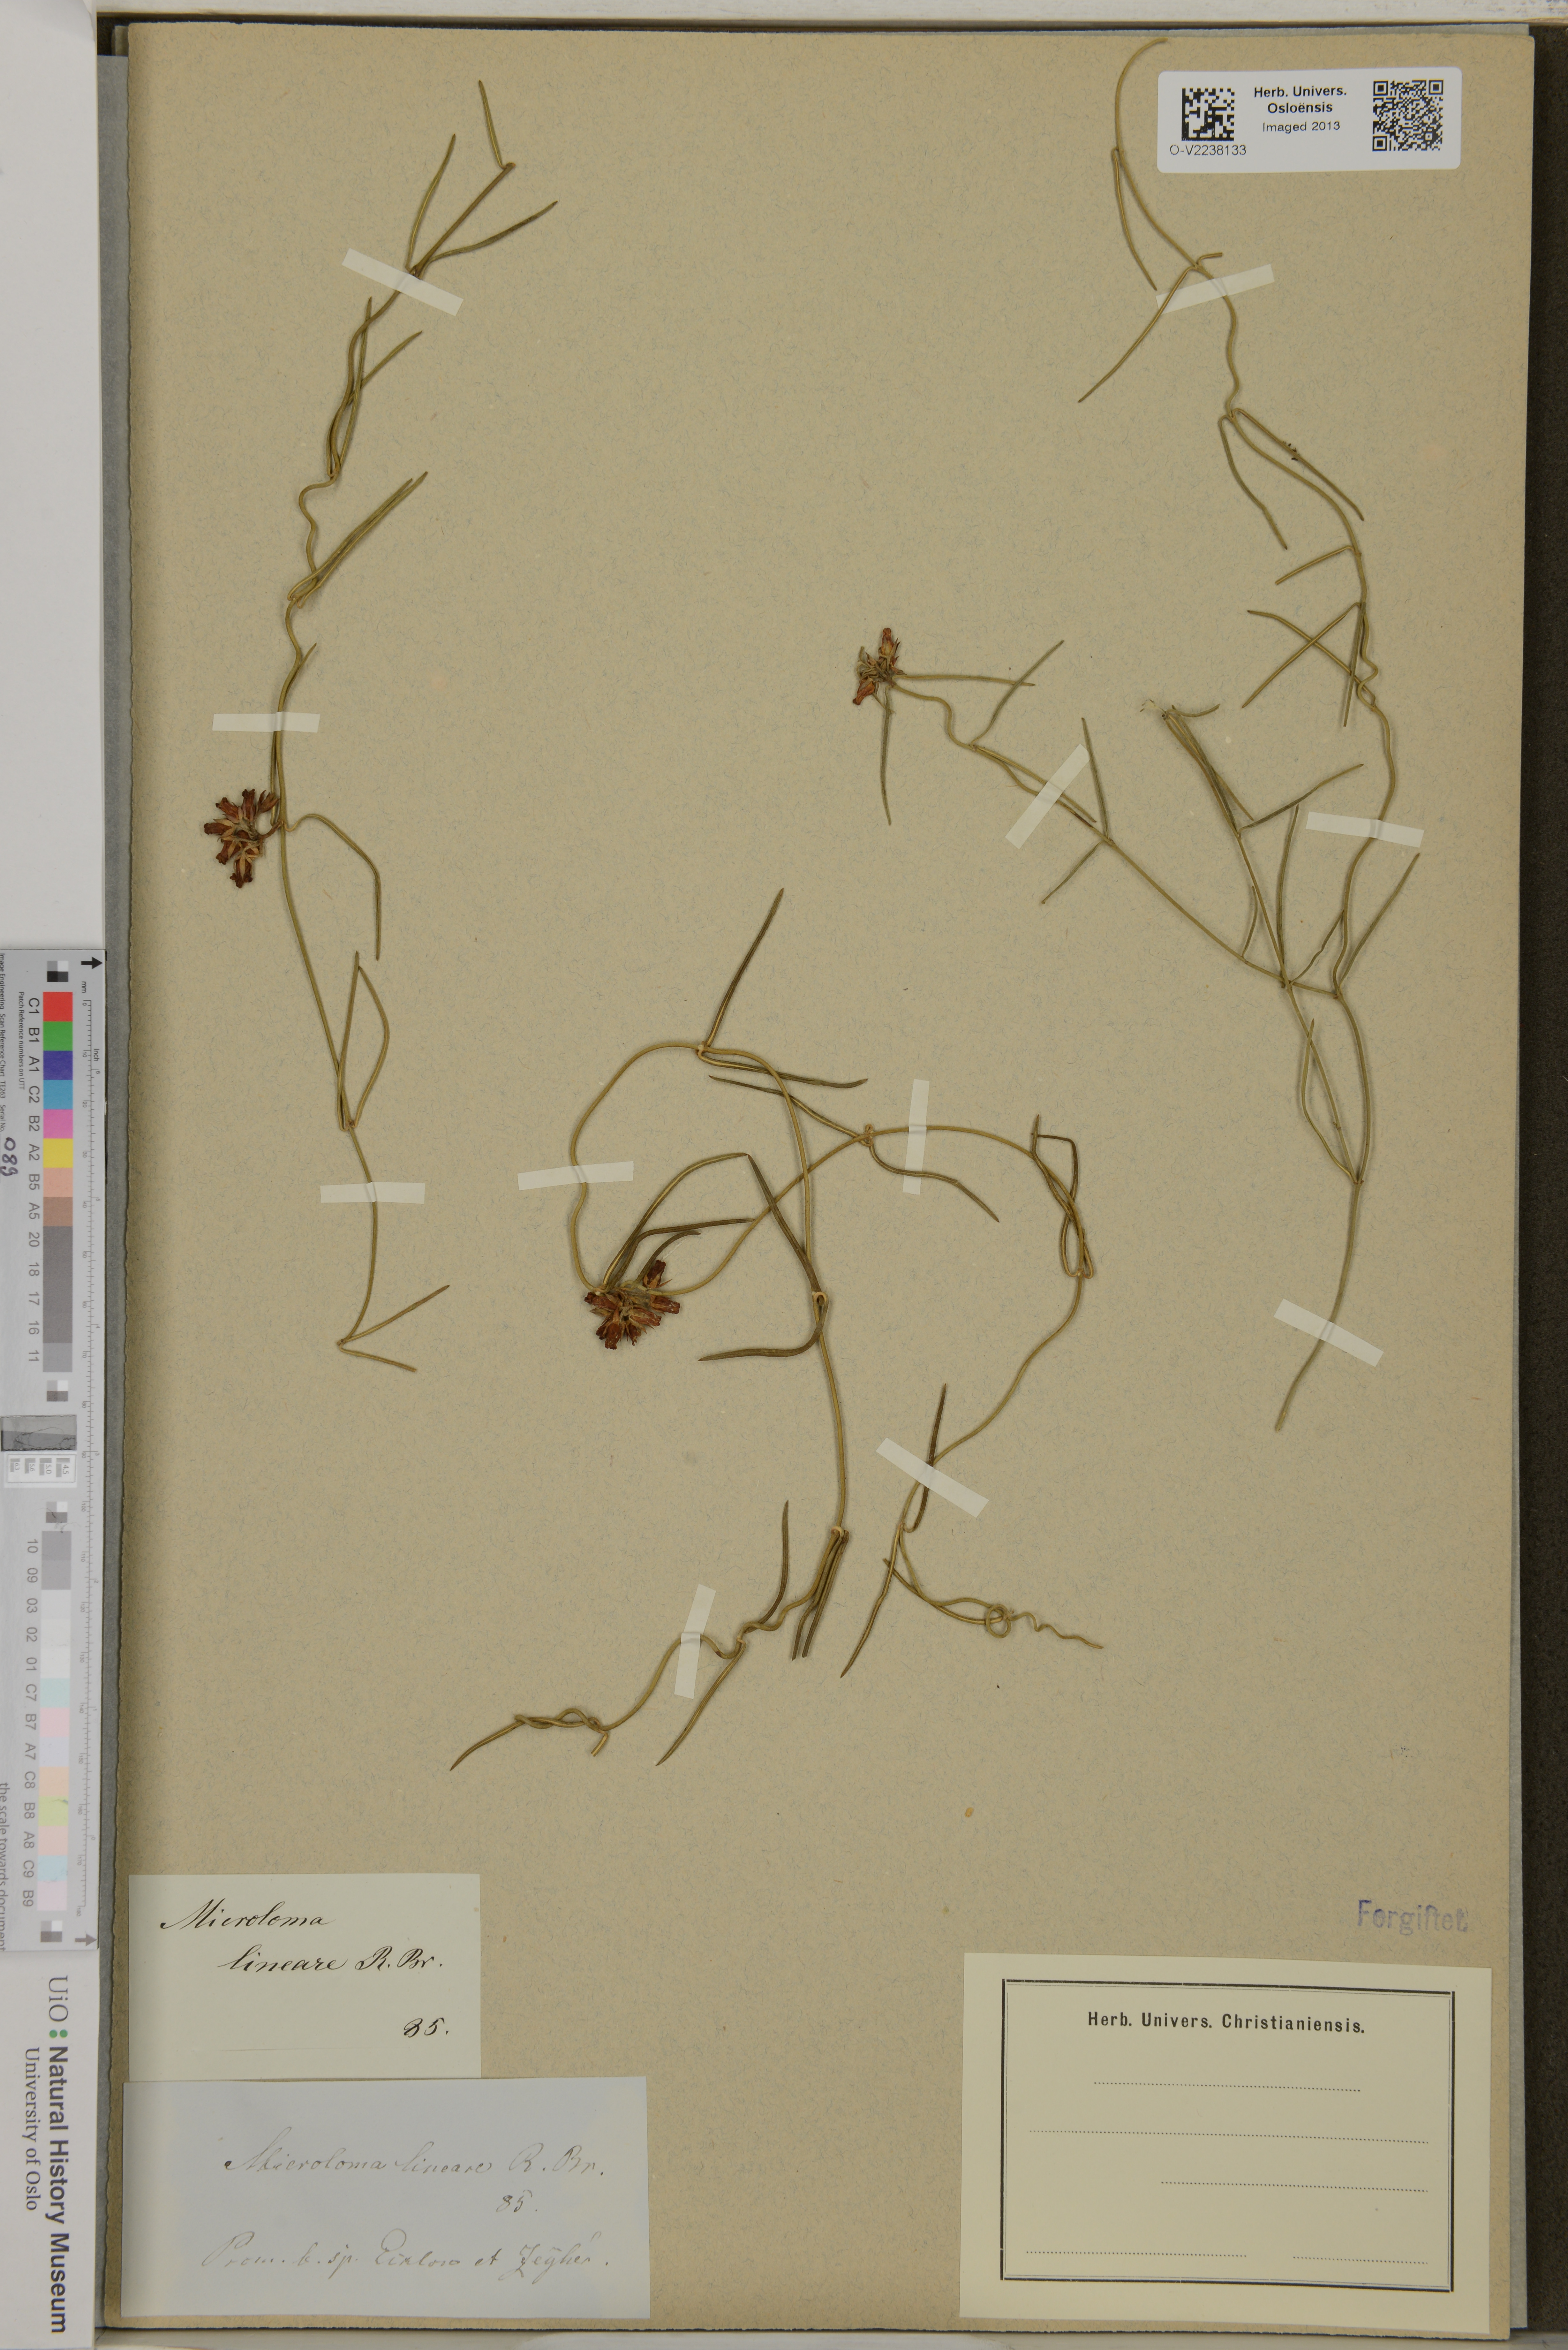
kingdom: Plantae
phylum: Tracheophyta
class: Magnoliopsida
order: Gentianales
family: Apocynaceae
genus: Microloma
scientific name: Microloma tenuifolium
